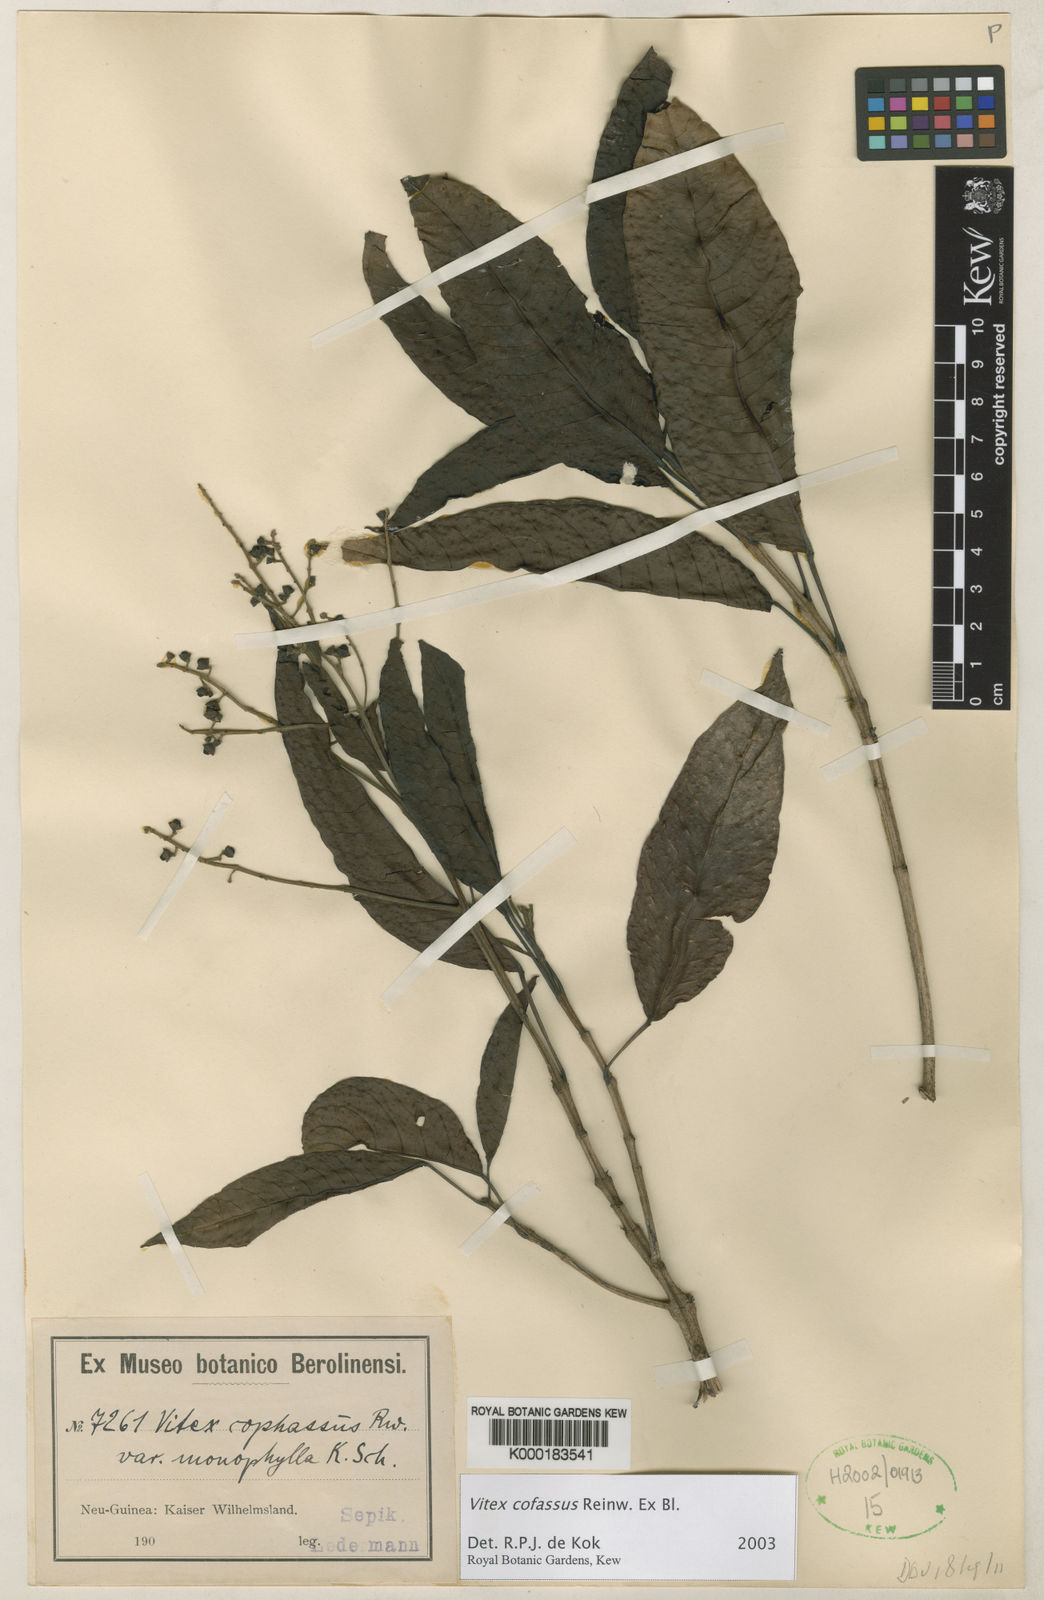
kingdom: Plantae
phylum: Tracheophyta
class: Magnoliopsida
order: Lamiales
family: Lamiaceae
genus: Vitex
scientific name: Vitex cofassus
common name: New guinea-teak
